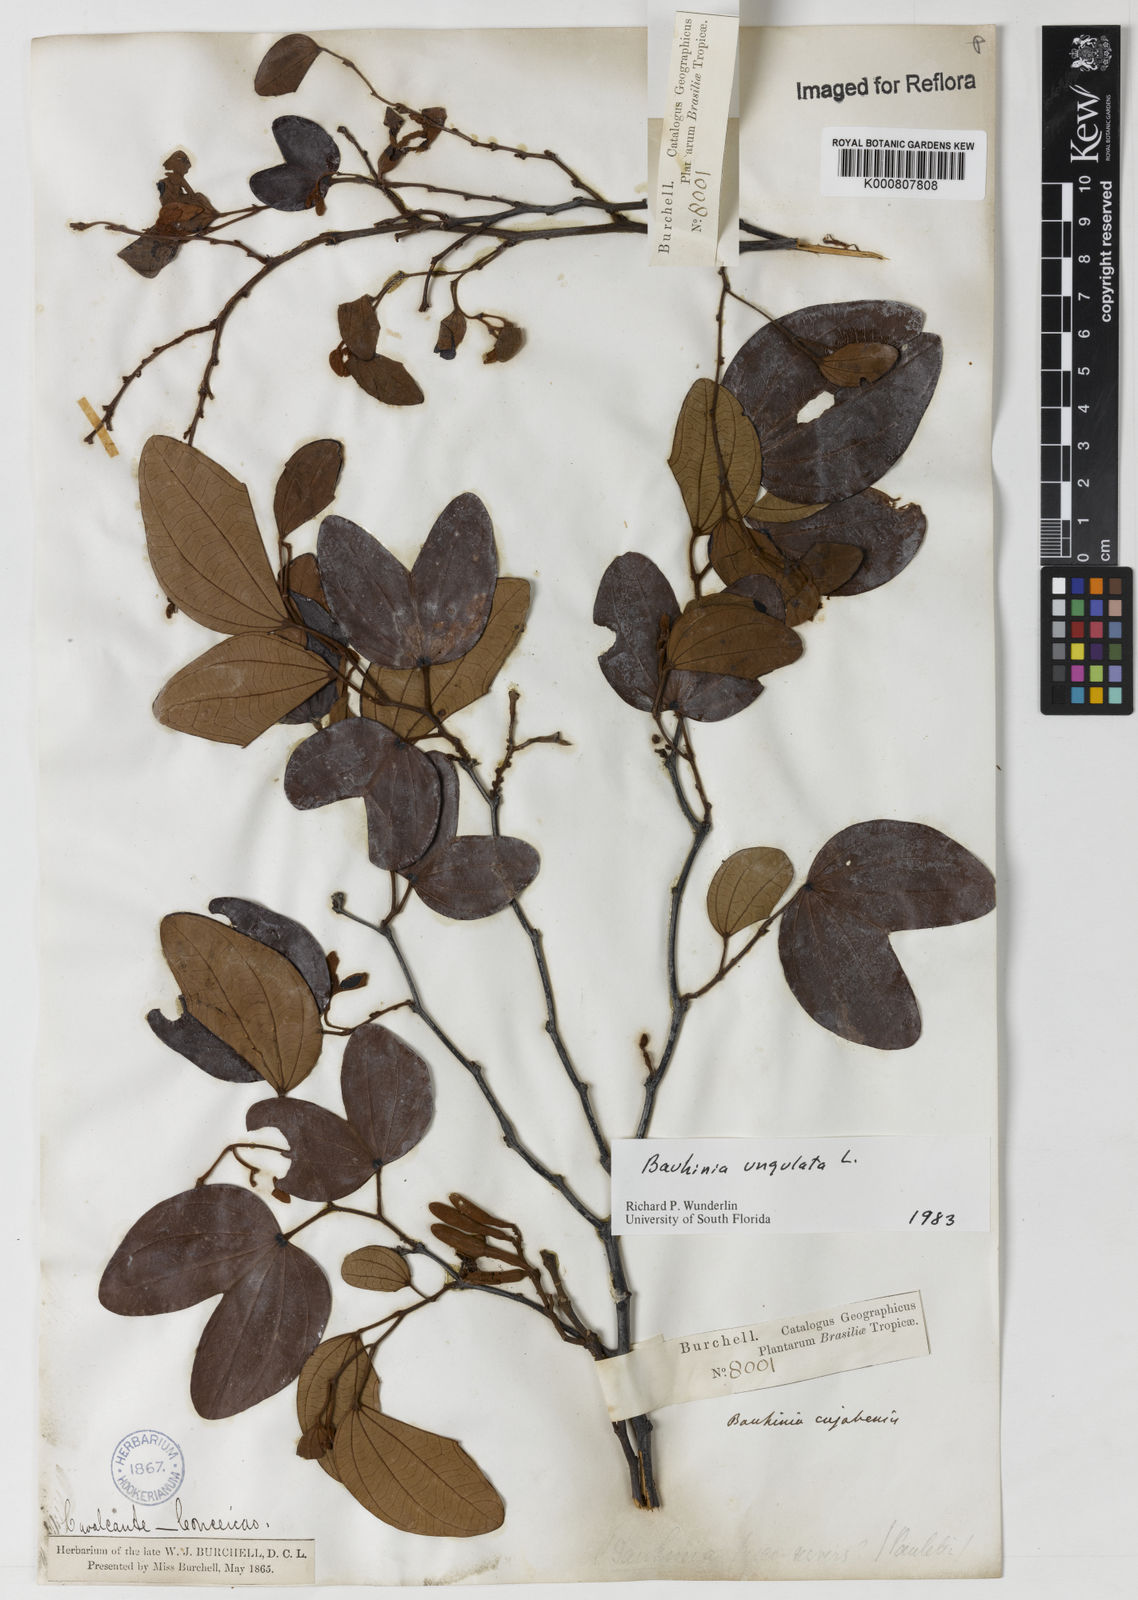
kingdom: Plantae
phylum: Tracheophyta
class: Magnoliopsida
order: Fabales
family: Fabaceae
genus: Bauhinia
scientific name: Bauhinia ungulata
